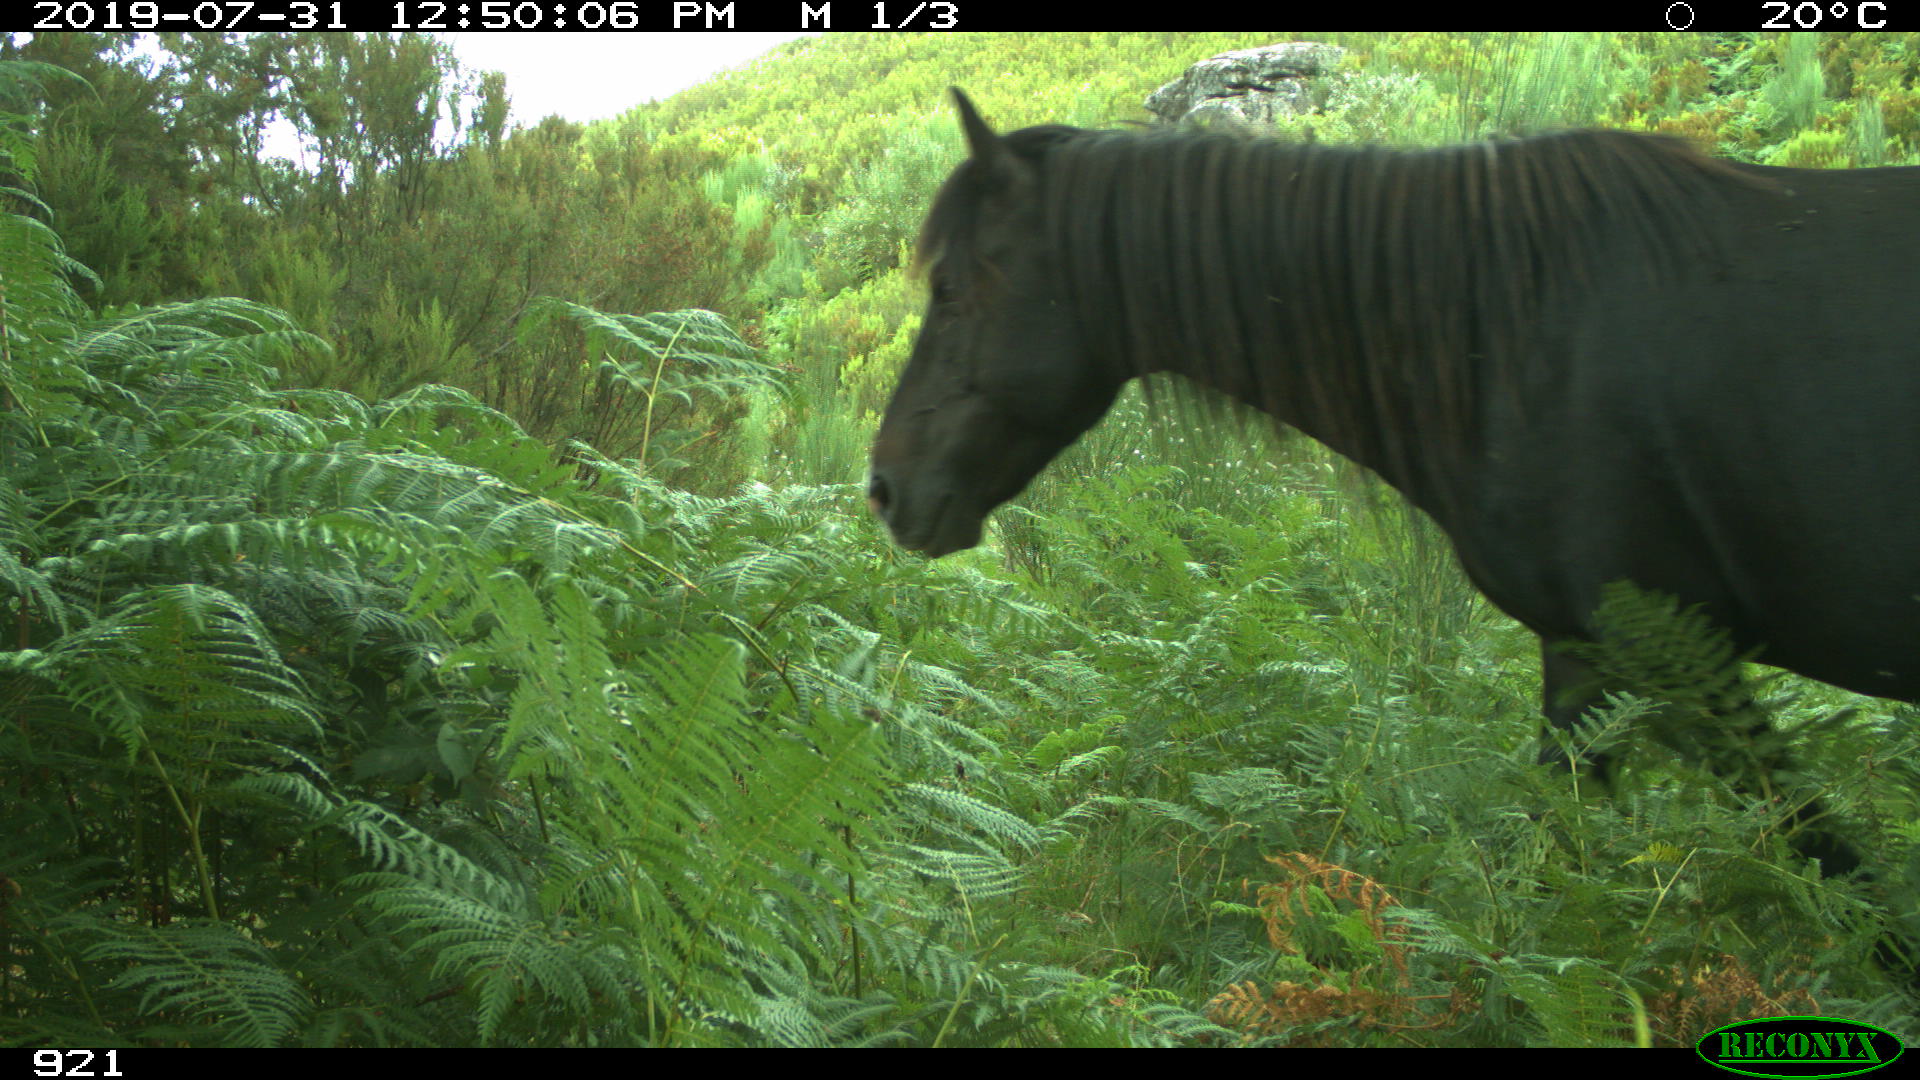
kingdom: Animalia
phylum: Chordata
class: Mammalia
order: Perissodactyla
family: Equidae
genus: Equus
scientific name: Equus caballus
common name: Horse
